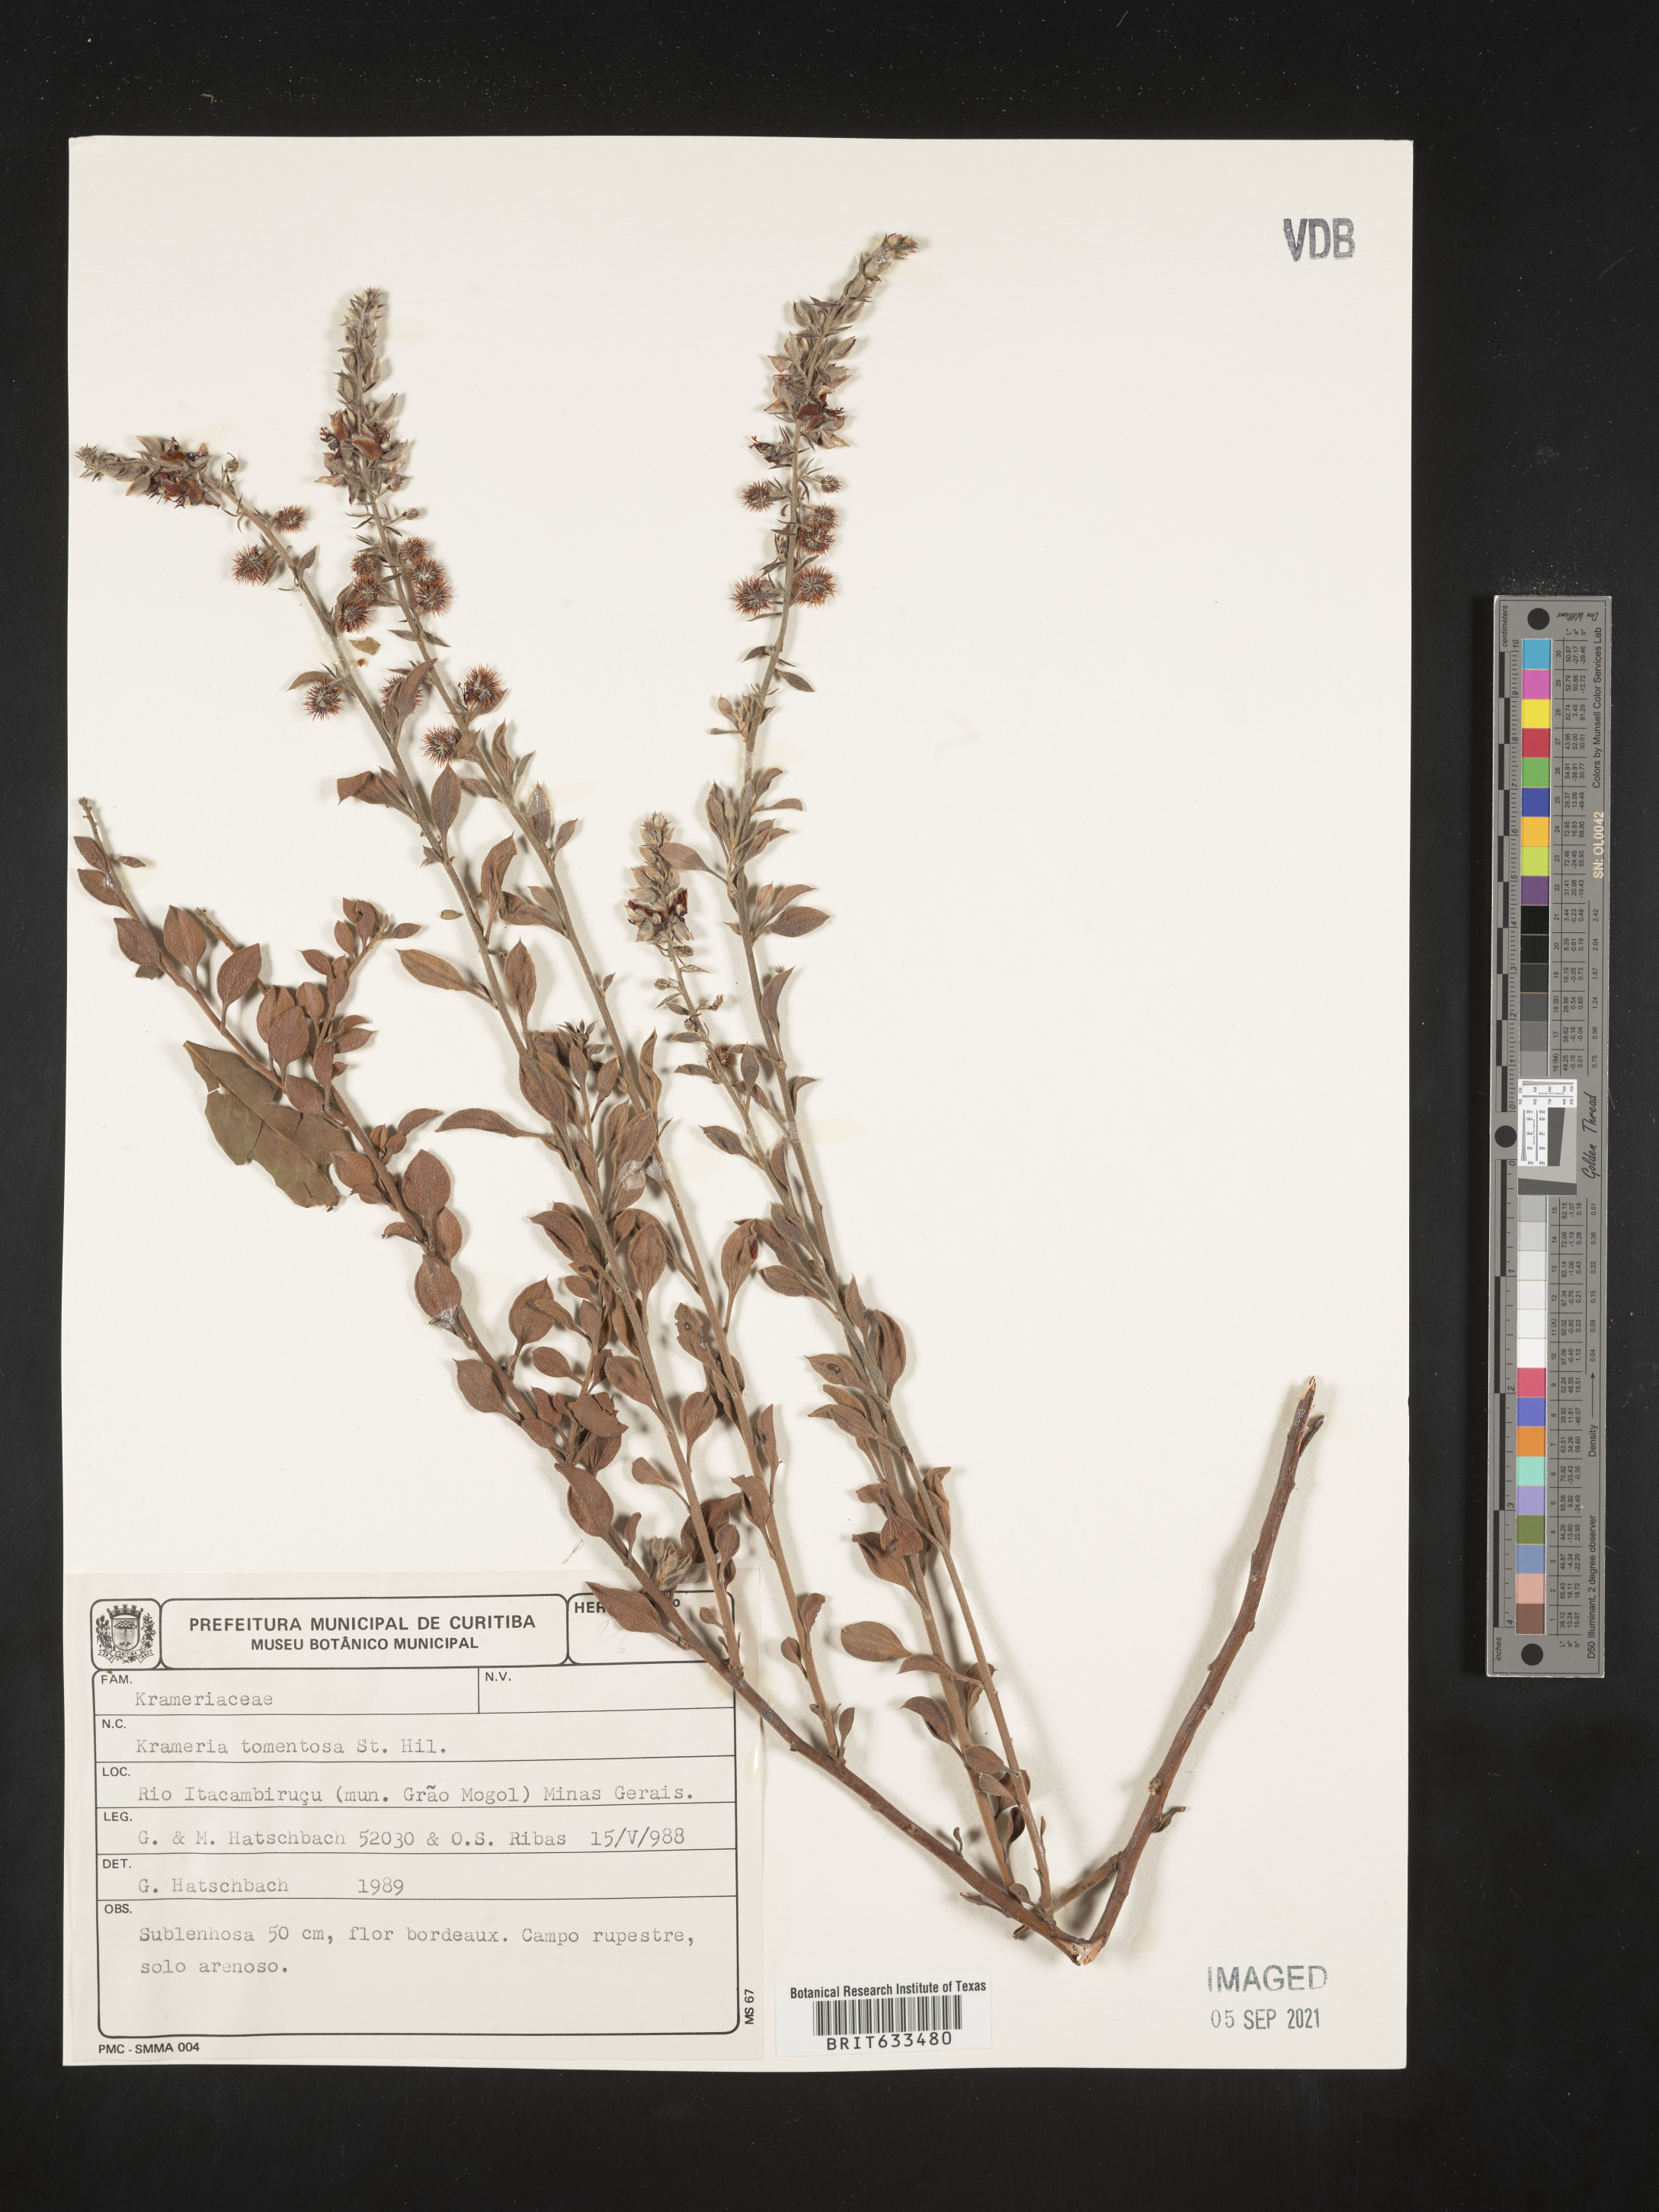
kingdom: Plantae
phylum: Tracheophyta
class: Magnoliopsida
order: Zygophyllales
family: Krameriaceae
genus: Krameria
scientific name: Krameria
